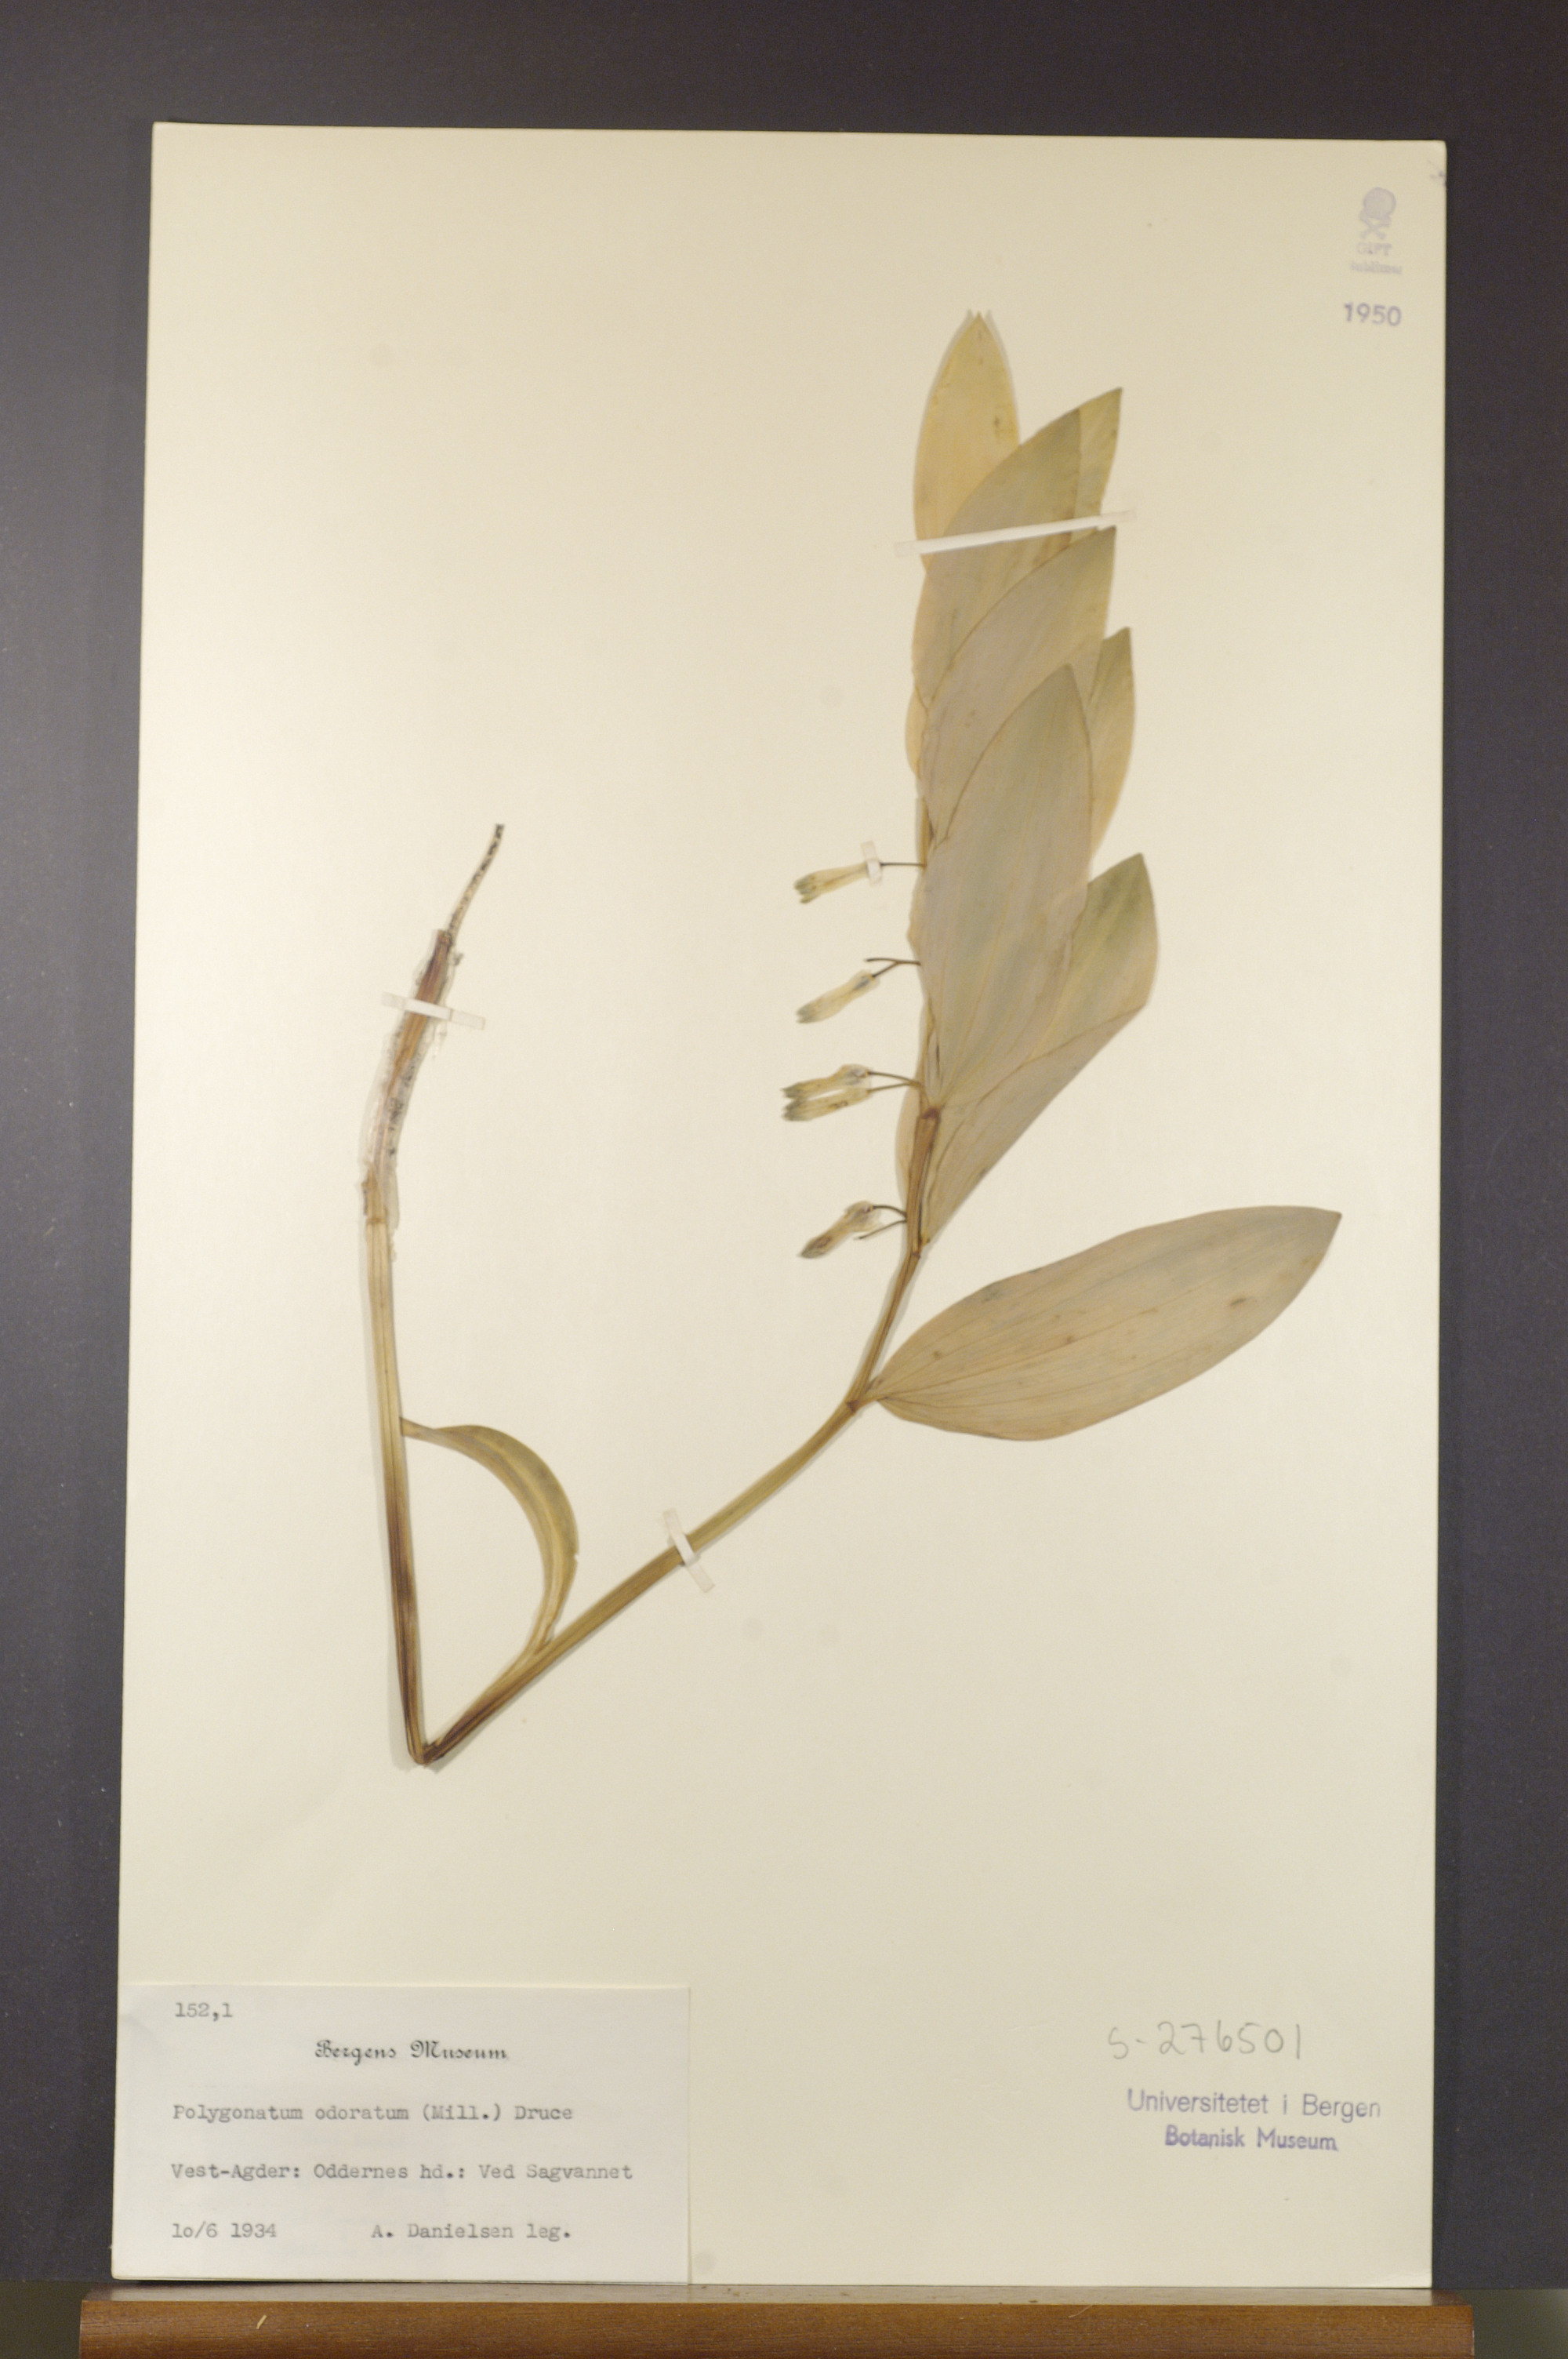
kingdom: Plantae
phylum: Tracheophyta
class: Liliopsida
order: Asparagales
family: Asparagaceae
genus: Polygonatum
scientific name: Polygonatum odoratum
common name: Angular solomon's-seal
